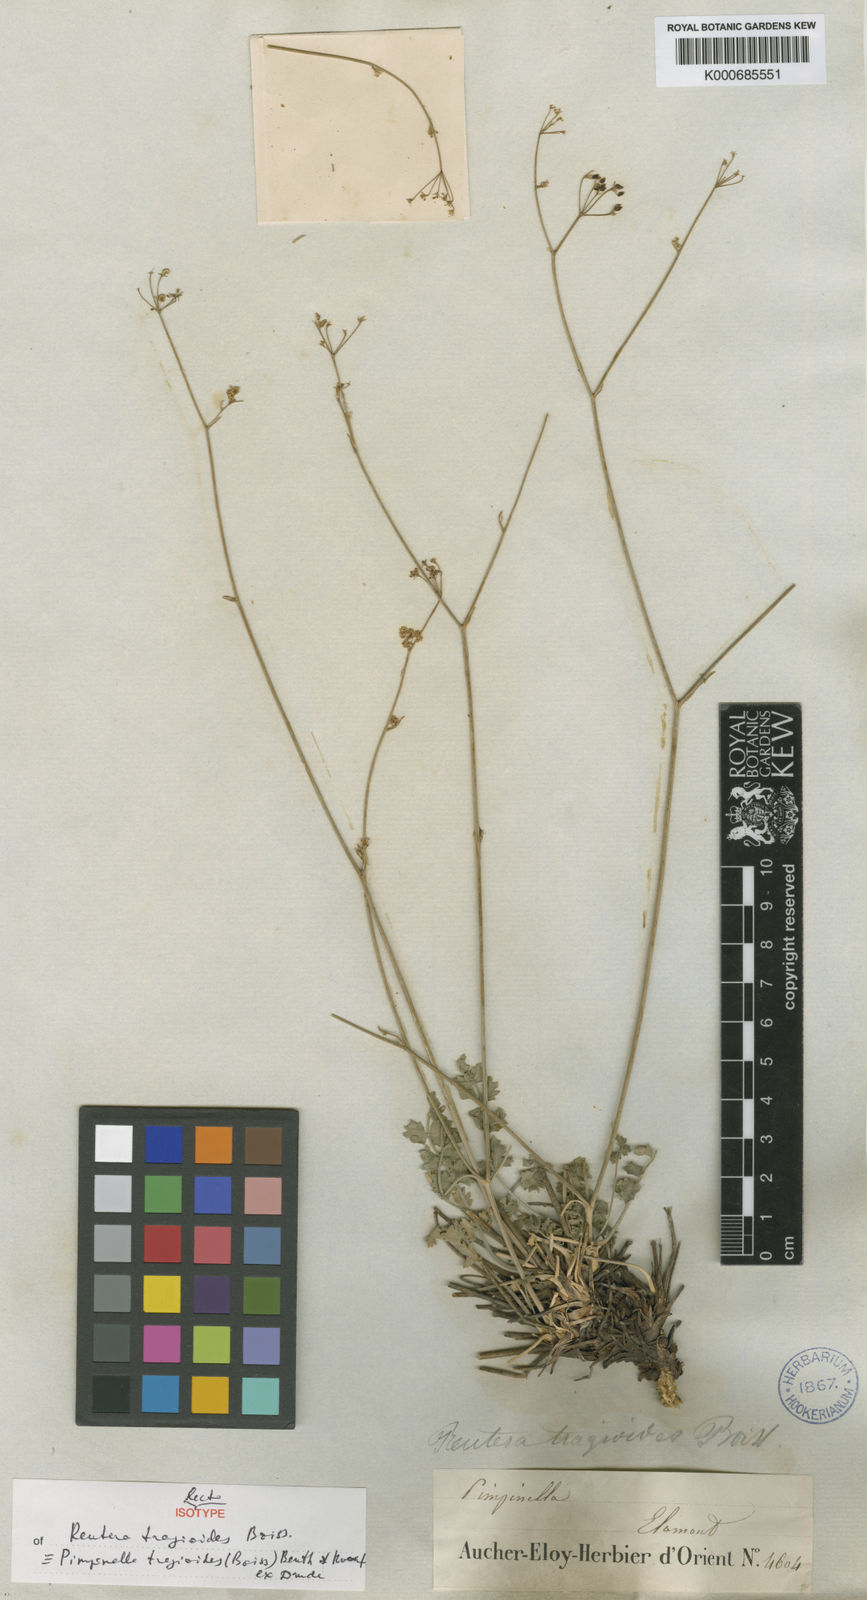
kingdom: Plantae
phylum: Tracheophyta
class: Magnoliopsida
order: Apiales
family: Apiaceae
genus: Pimpinella
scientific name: Pimpinella
